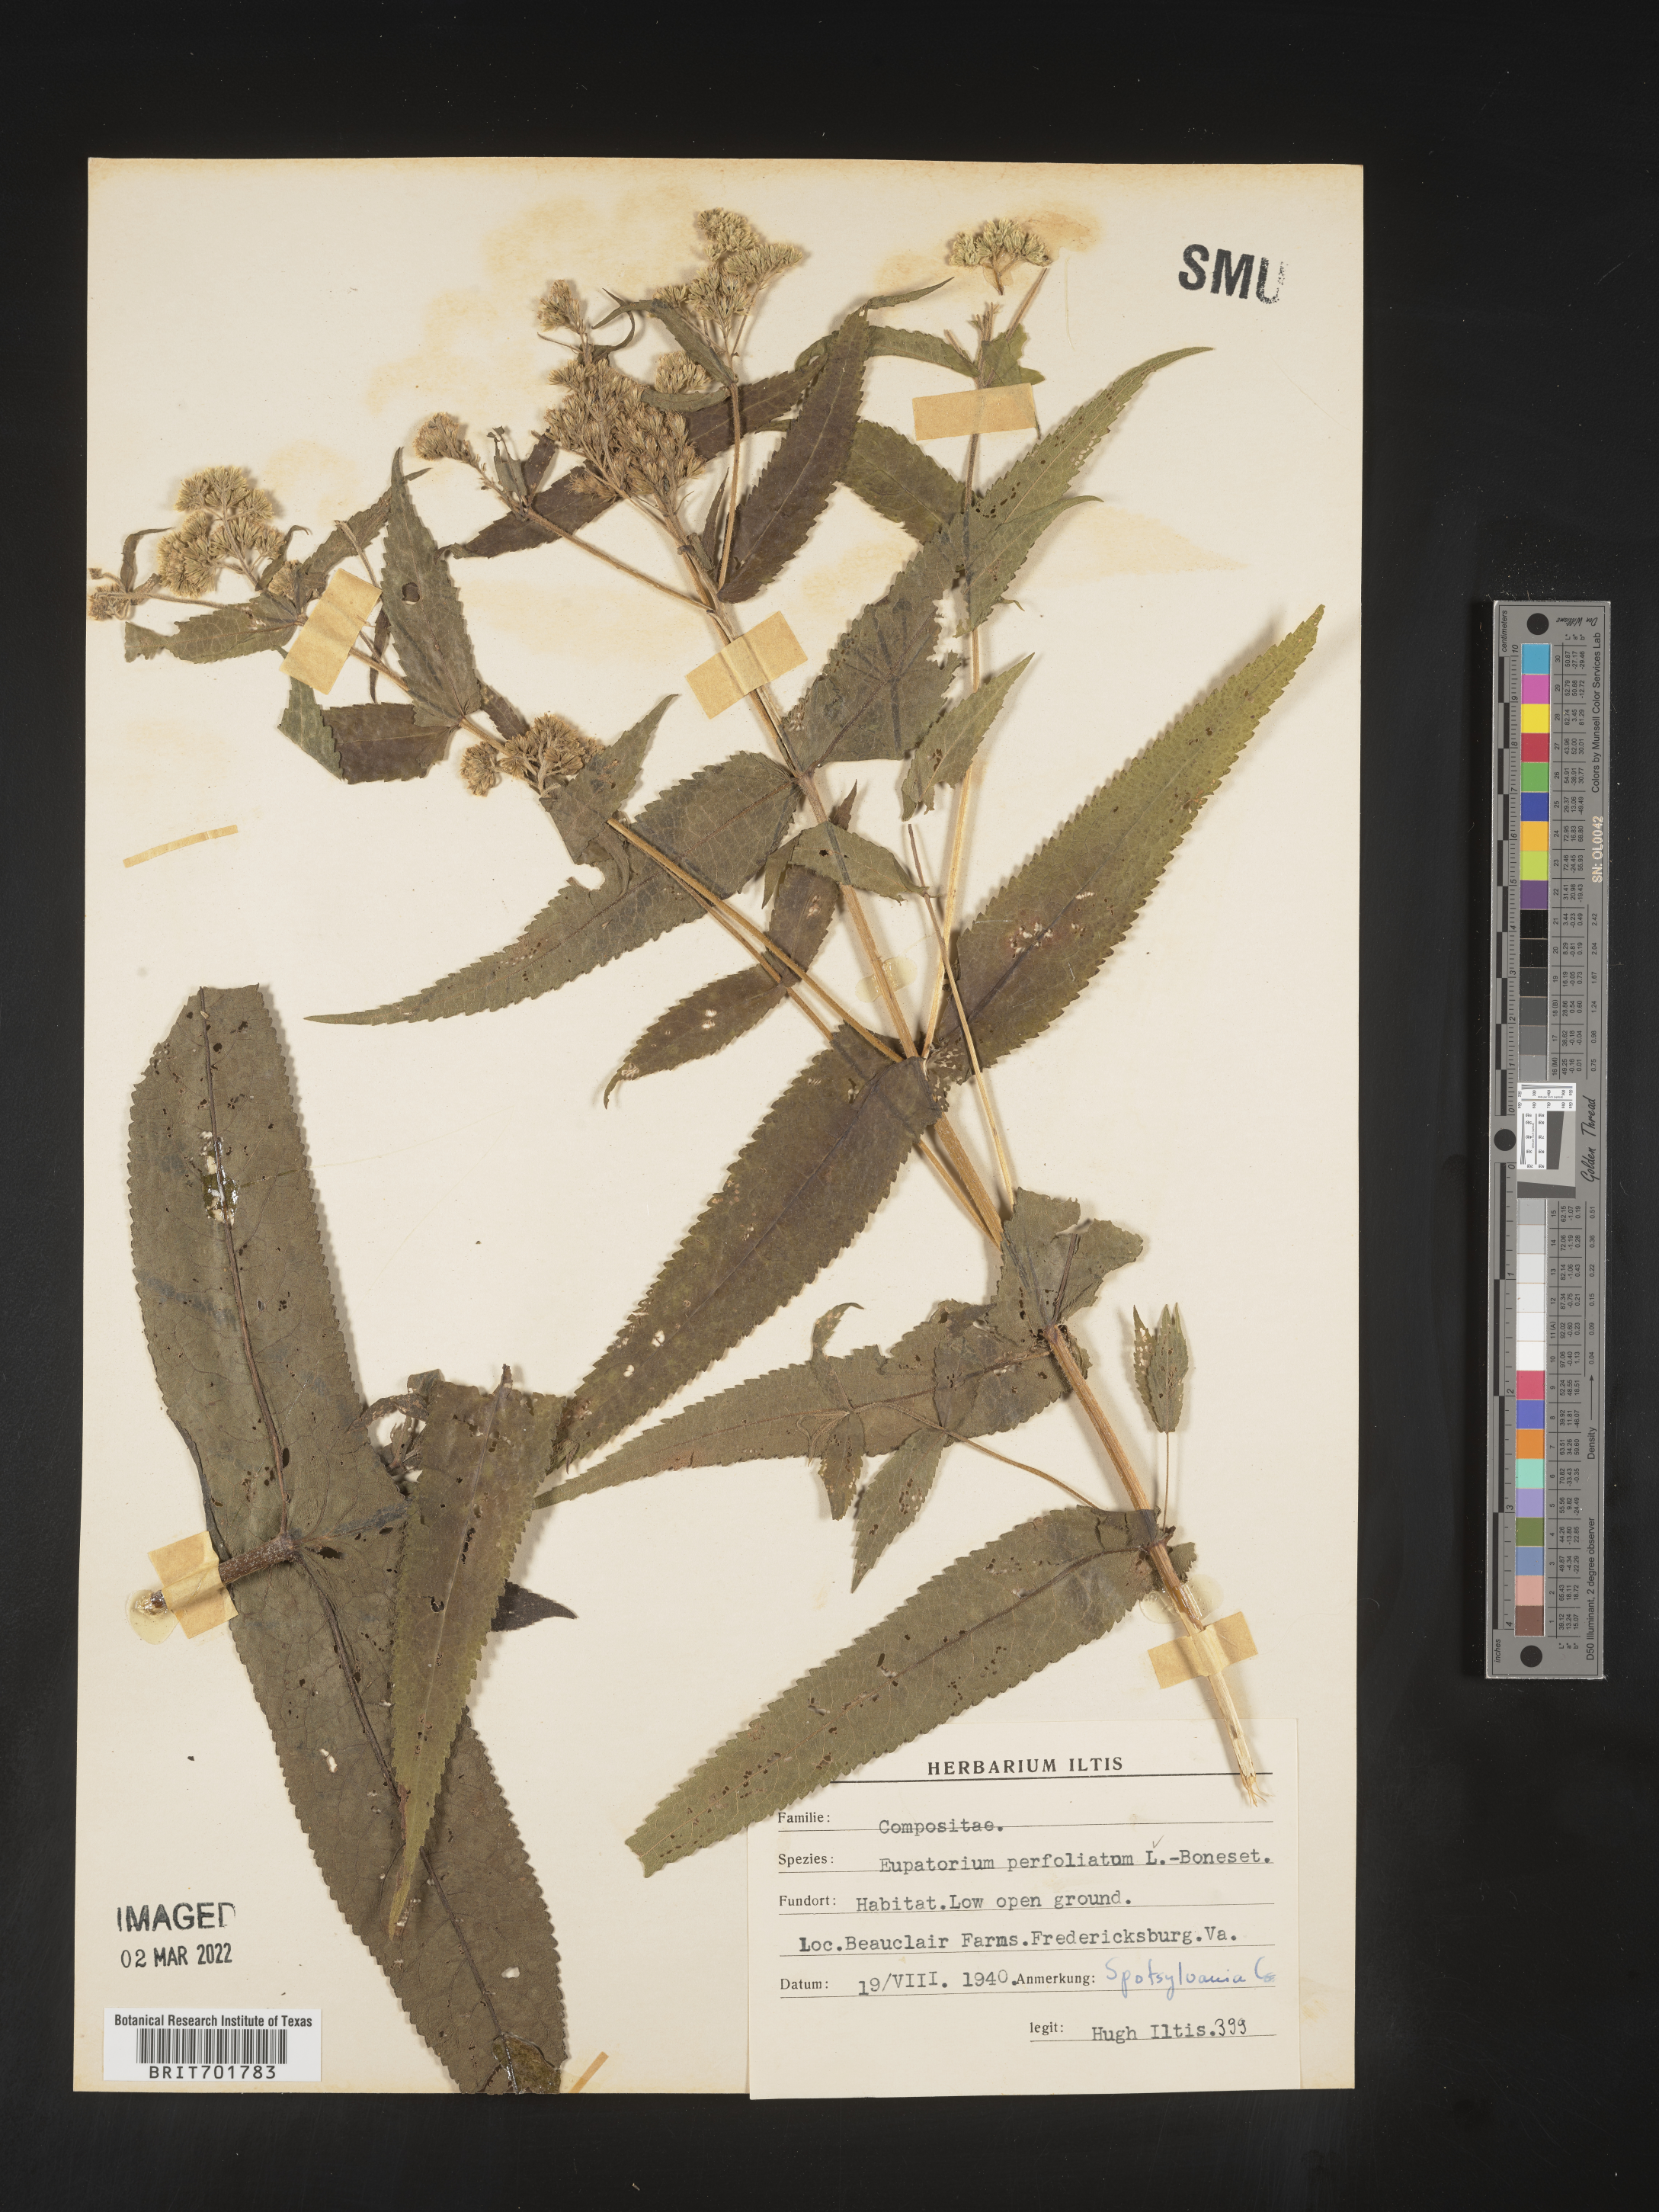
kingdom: Plantae
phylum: Tracheophyta
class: Magnoliopsida
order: Asterales
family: Asteraceae
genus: Eupatorium
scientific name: Eupatorium perfoliatum
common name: Boneset
